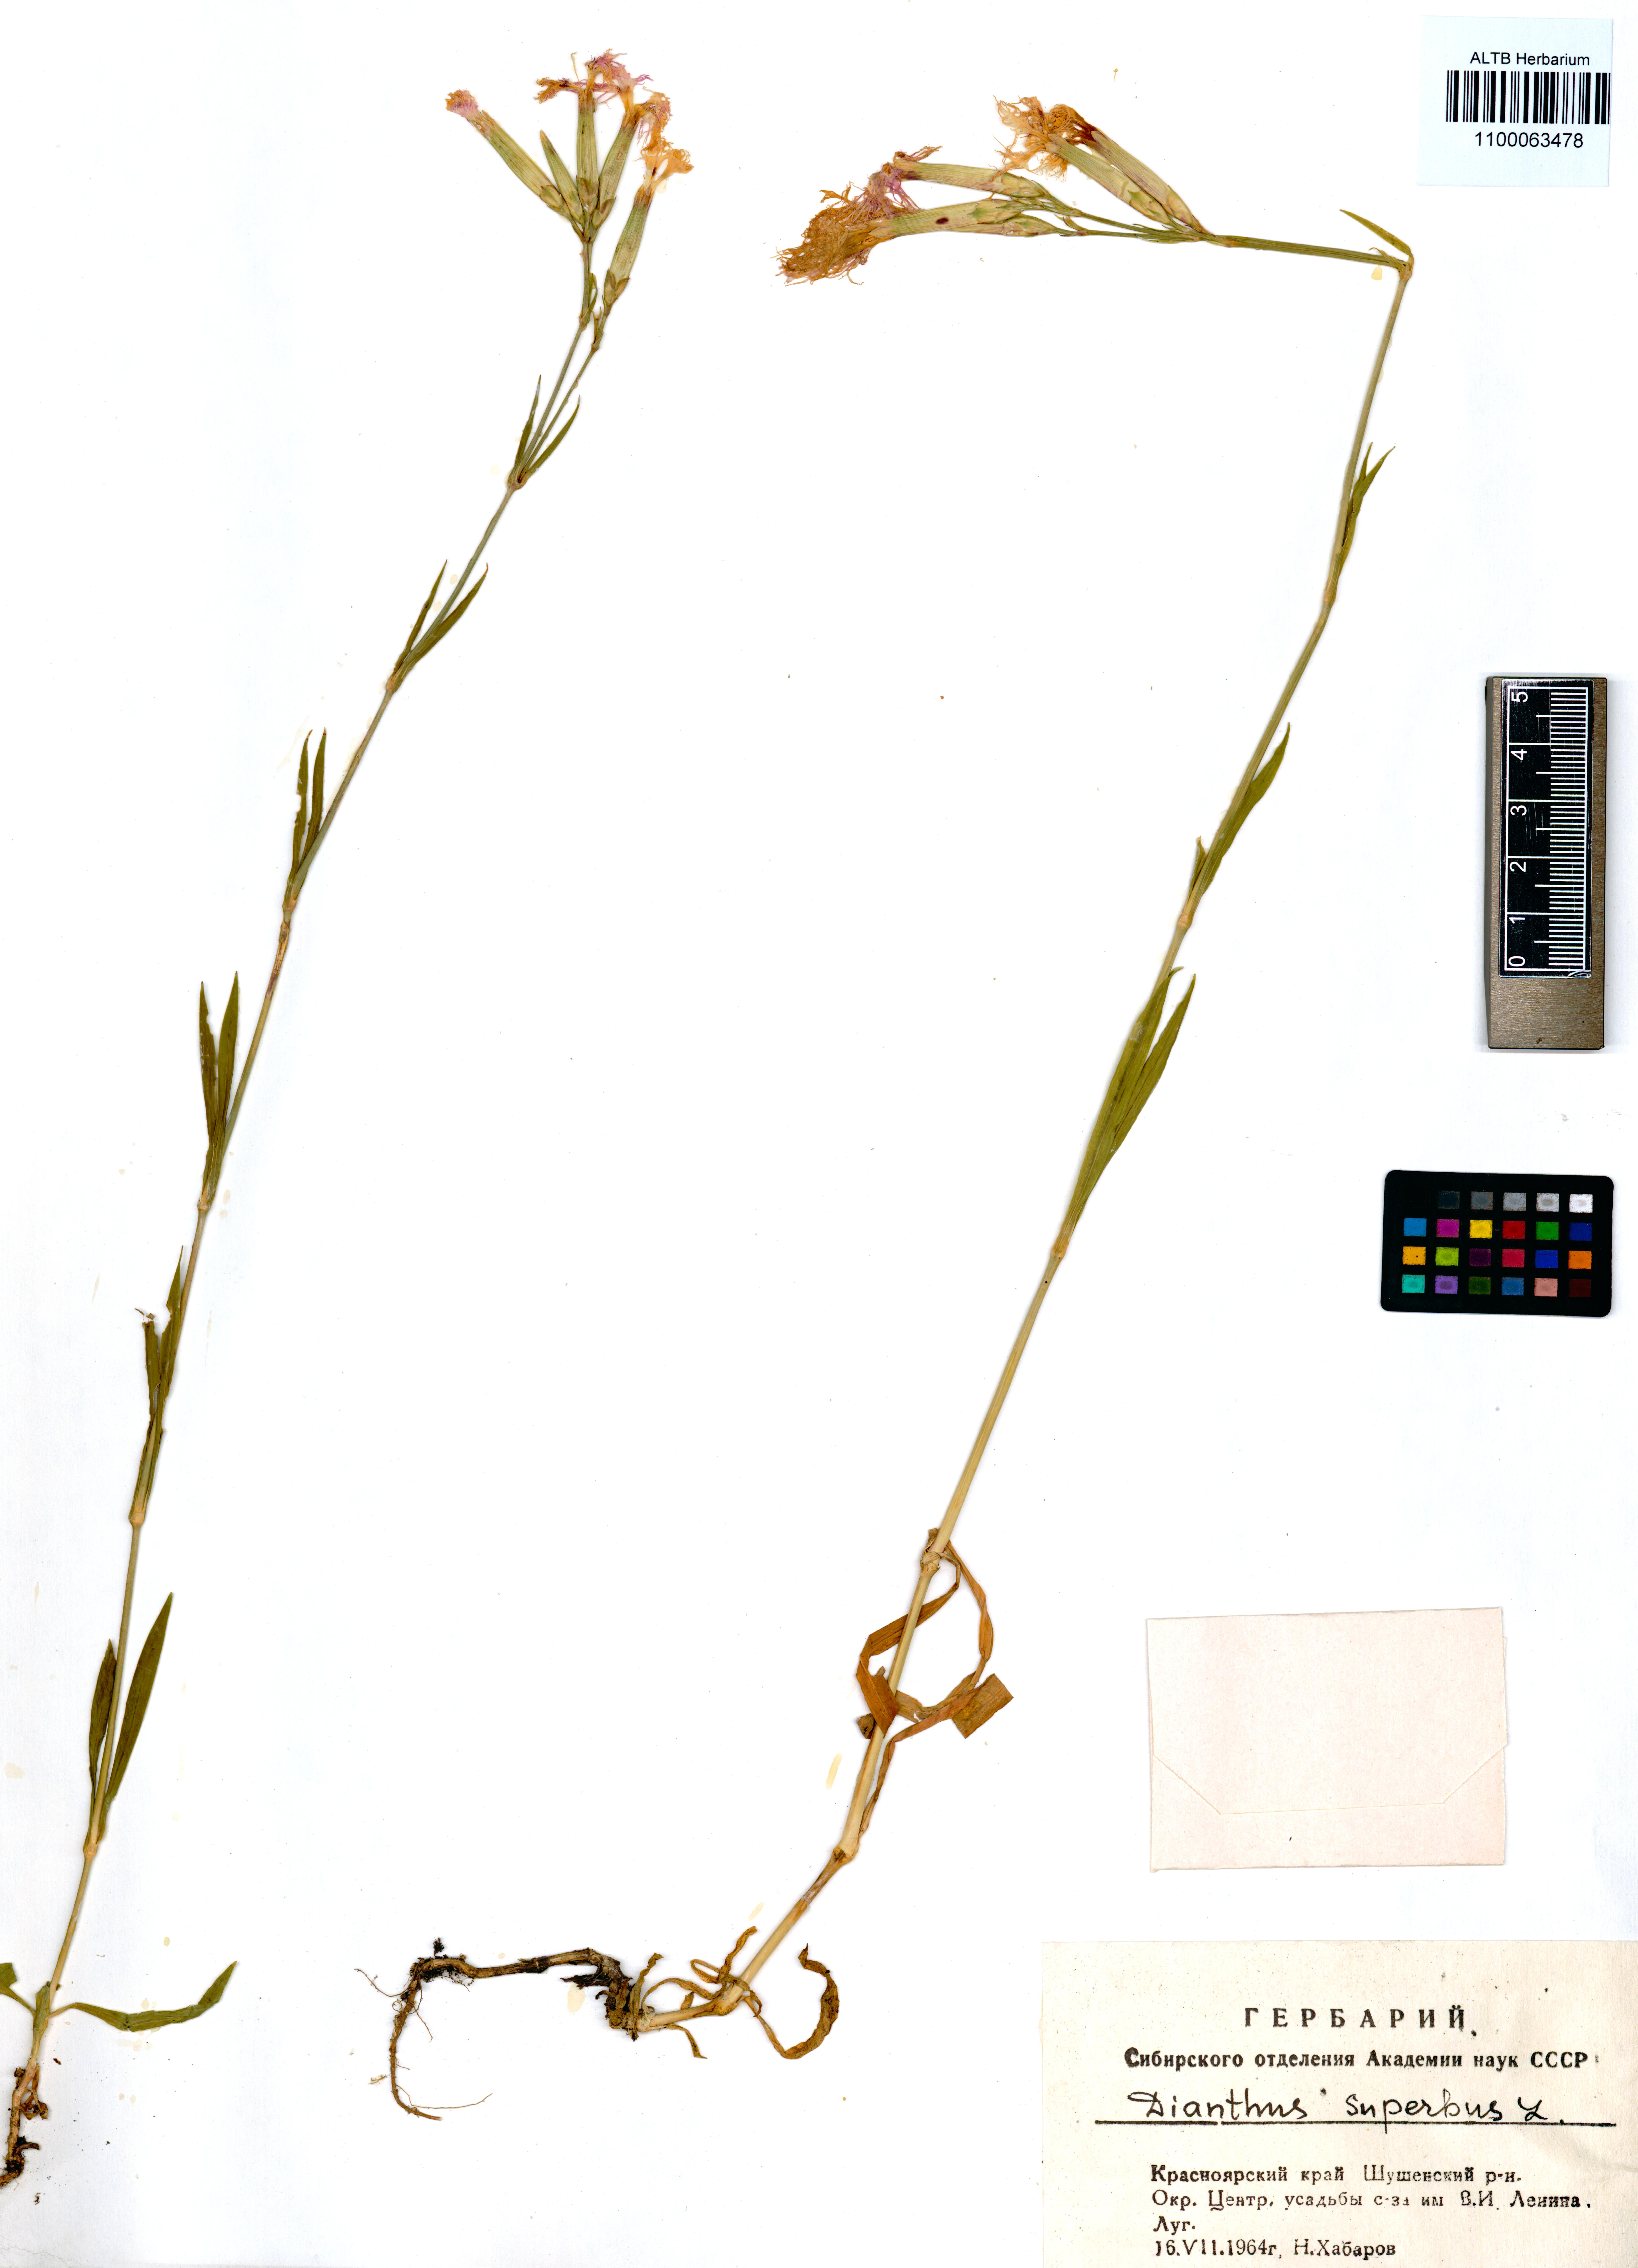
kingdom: Plantae
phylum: Tracheophyta
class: Magnoliopsida
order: Caryophyllales
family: Caryophyllaceae
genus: Dianthus
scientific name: Dianthus superbus
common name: Fringed pink
